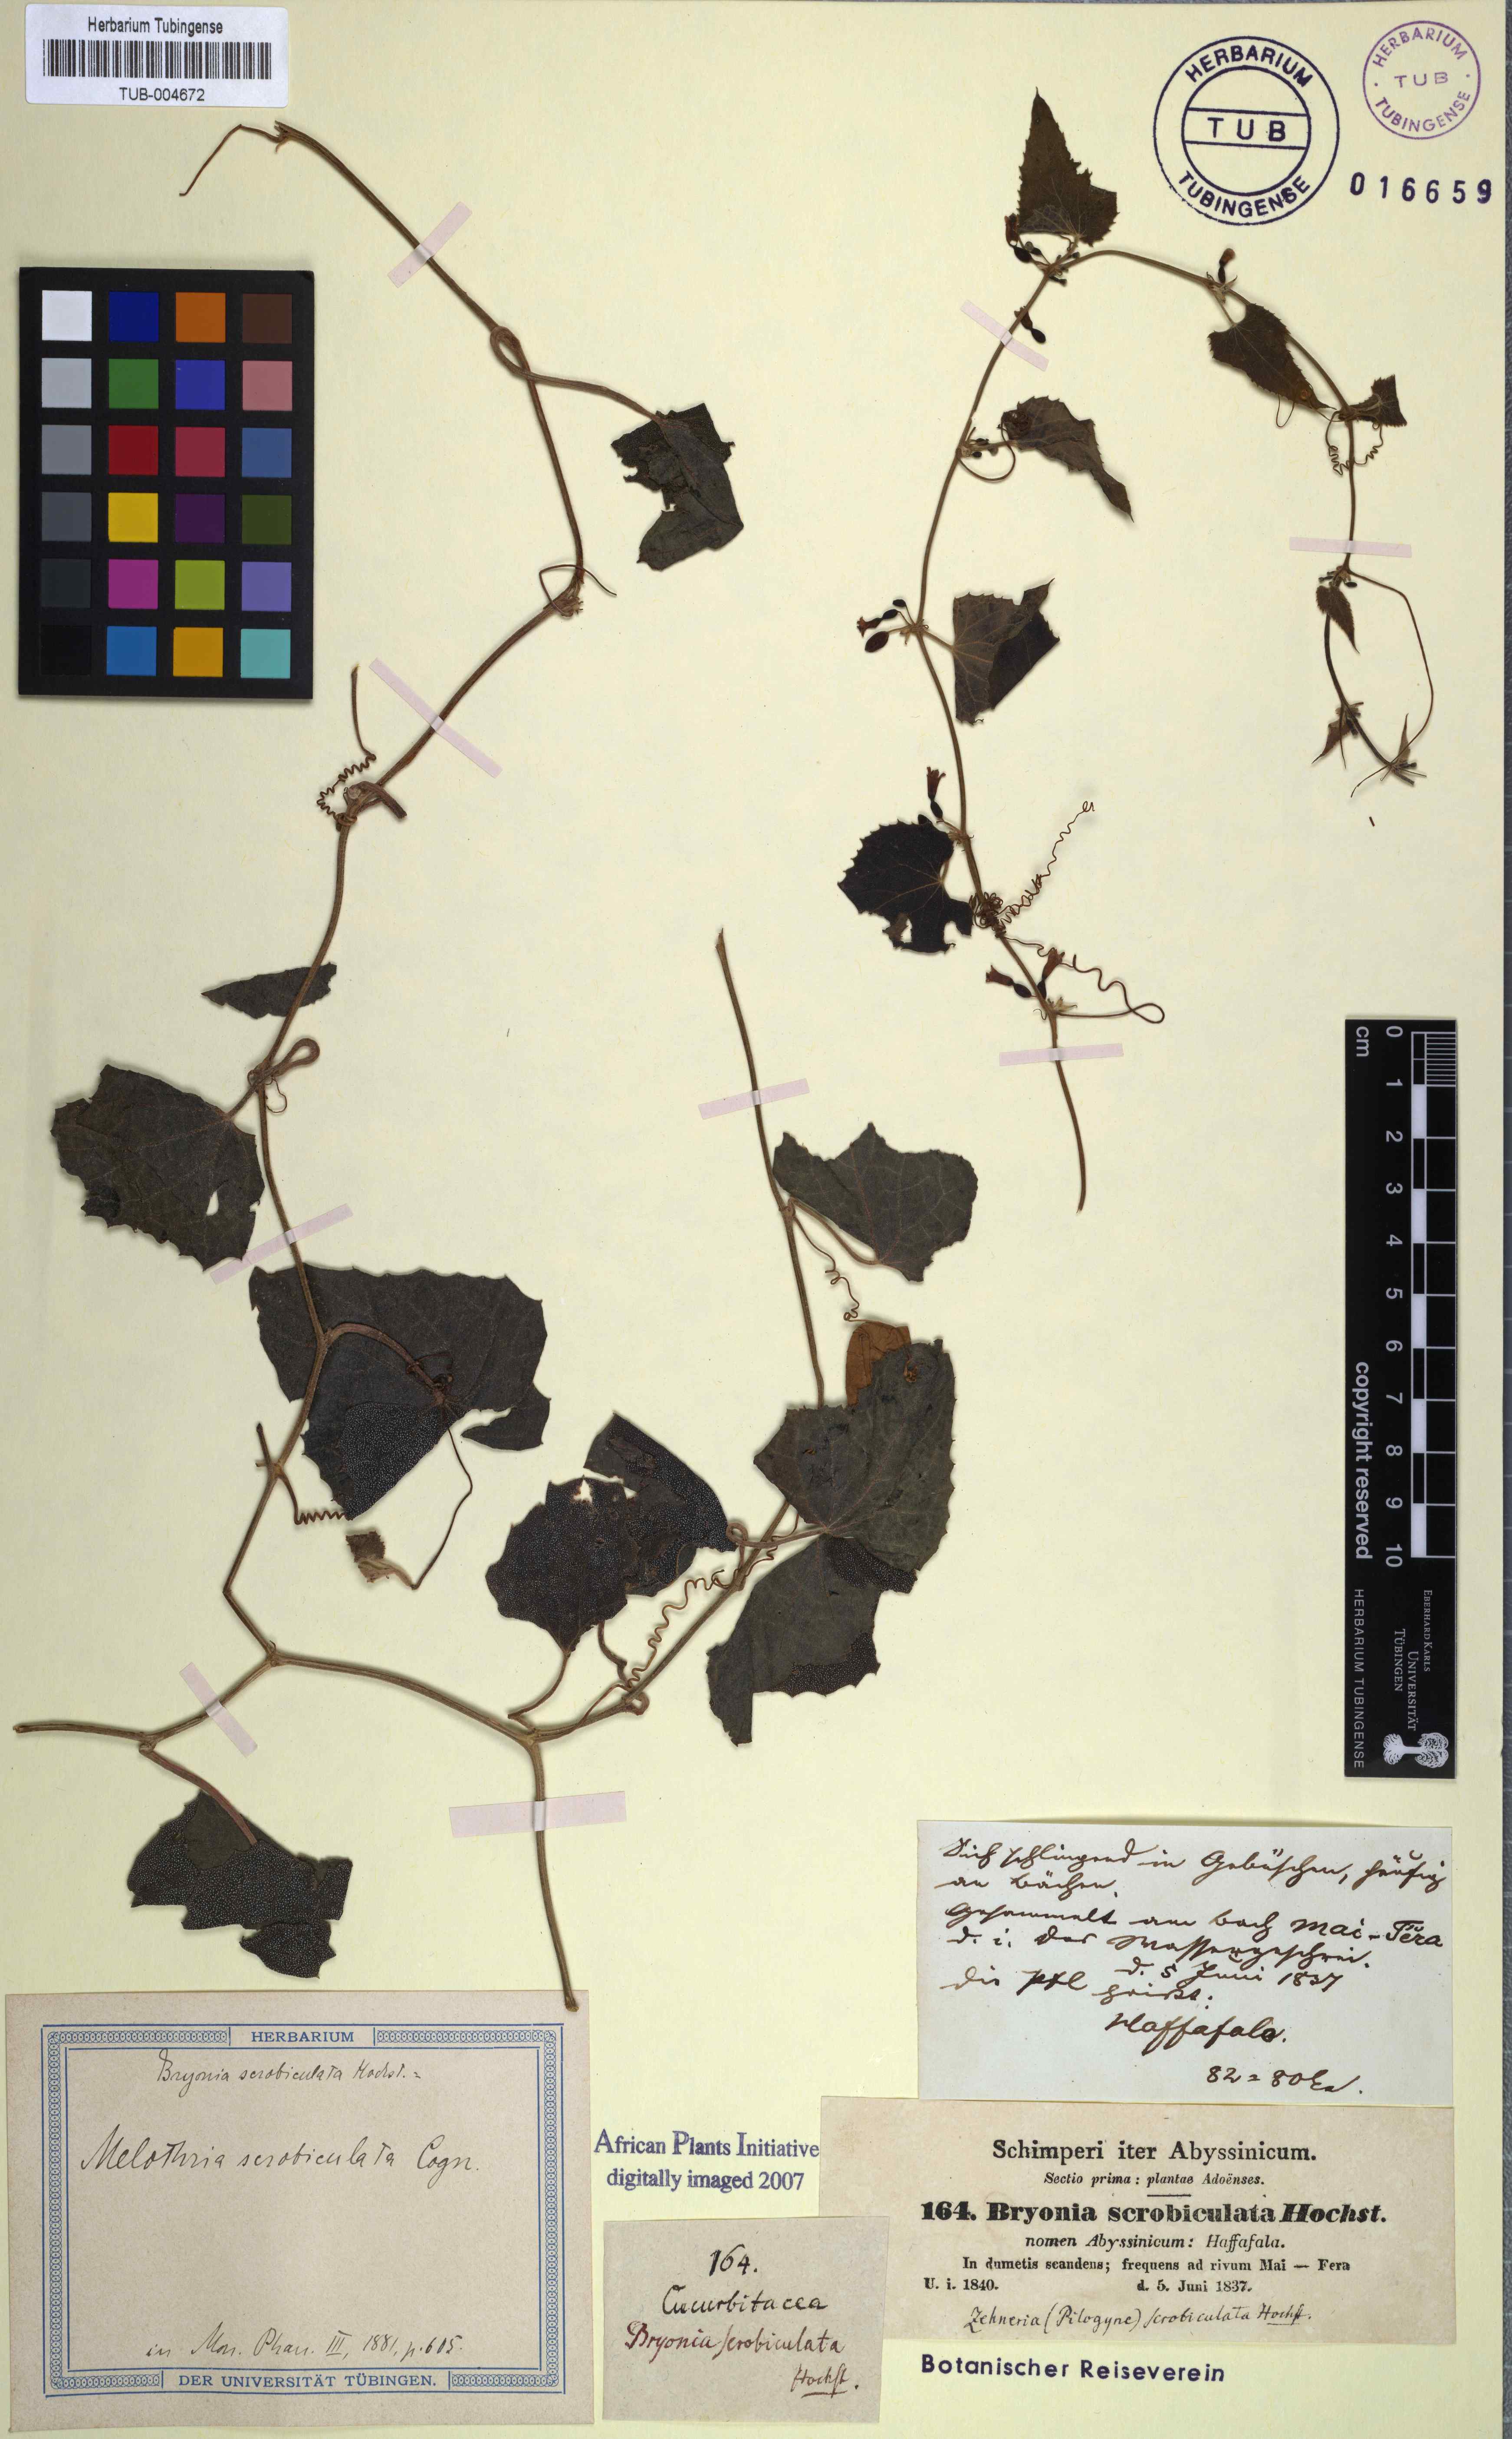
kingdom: Plantae
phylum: Tracheophyta
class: Magnoliopsida
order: Cucurbitales
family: Cucurbitaceae
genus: Zehneria
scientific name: Zehneria scabra
